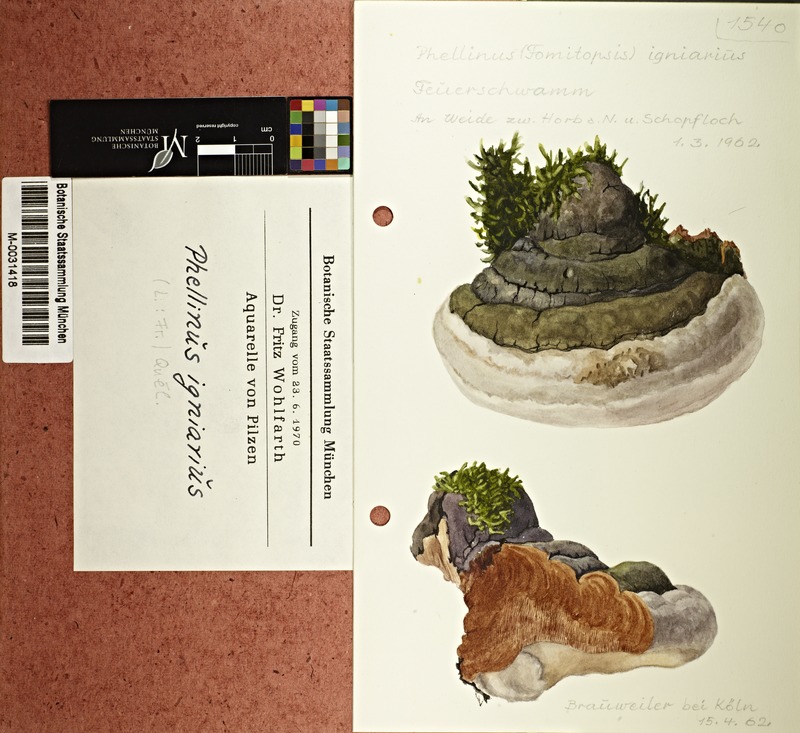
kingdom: Fungi
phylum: Basidiomycota
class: Agaricomycetes
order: Hymenochaetales
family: Hymenochaetaceae
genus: Phellinus
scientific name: Phellinus igniarius
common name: Willow bracket
